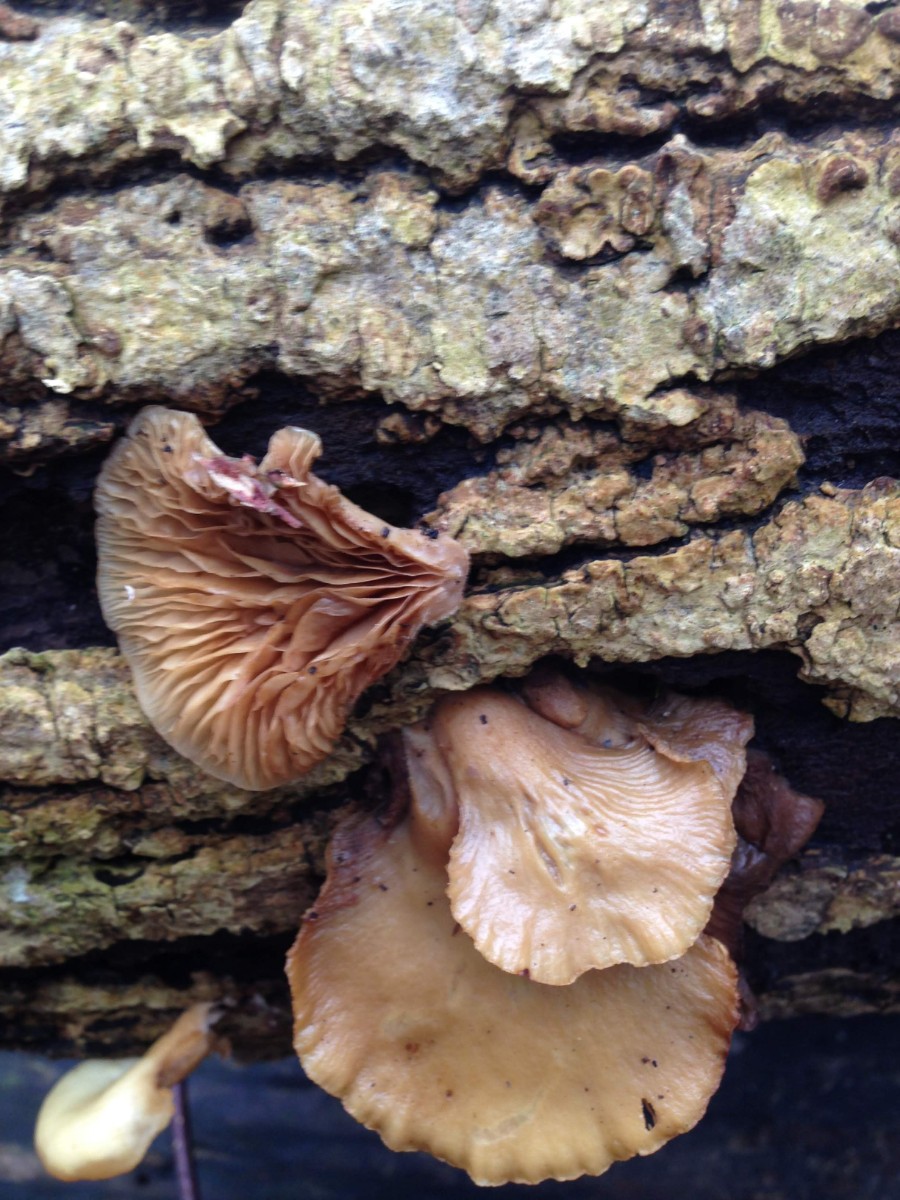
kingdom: Fungi
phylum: Basidiomycota
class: Agaricomycetes
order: Agaricales
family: Pleurotaceae
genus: Pleurotus
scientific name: Pleurotus ostreatus
